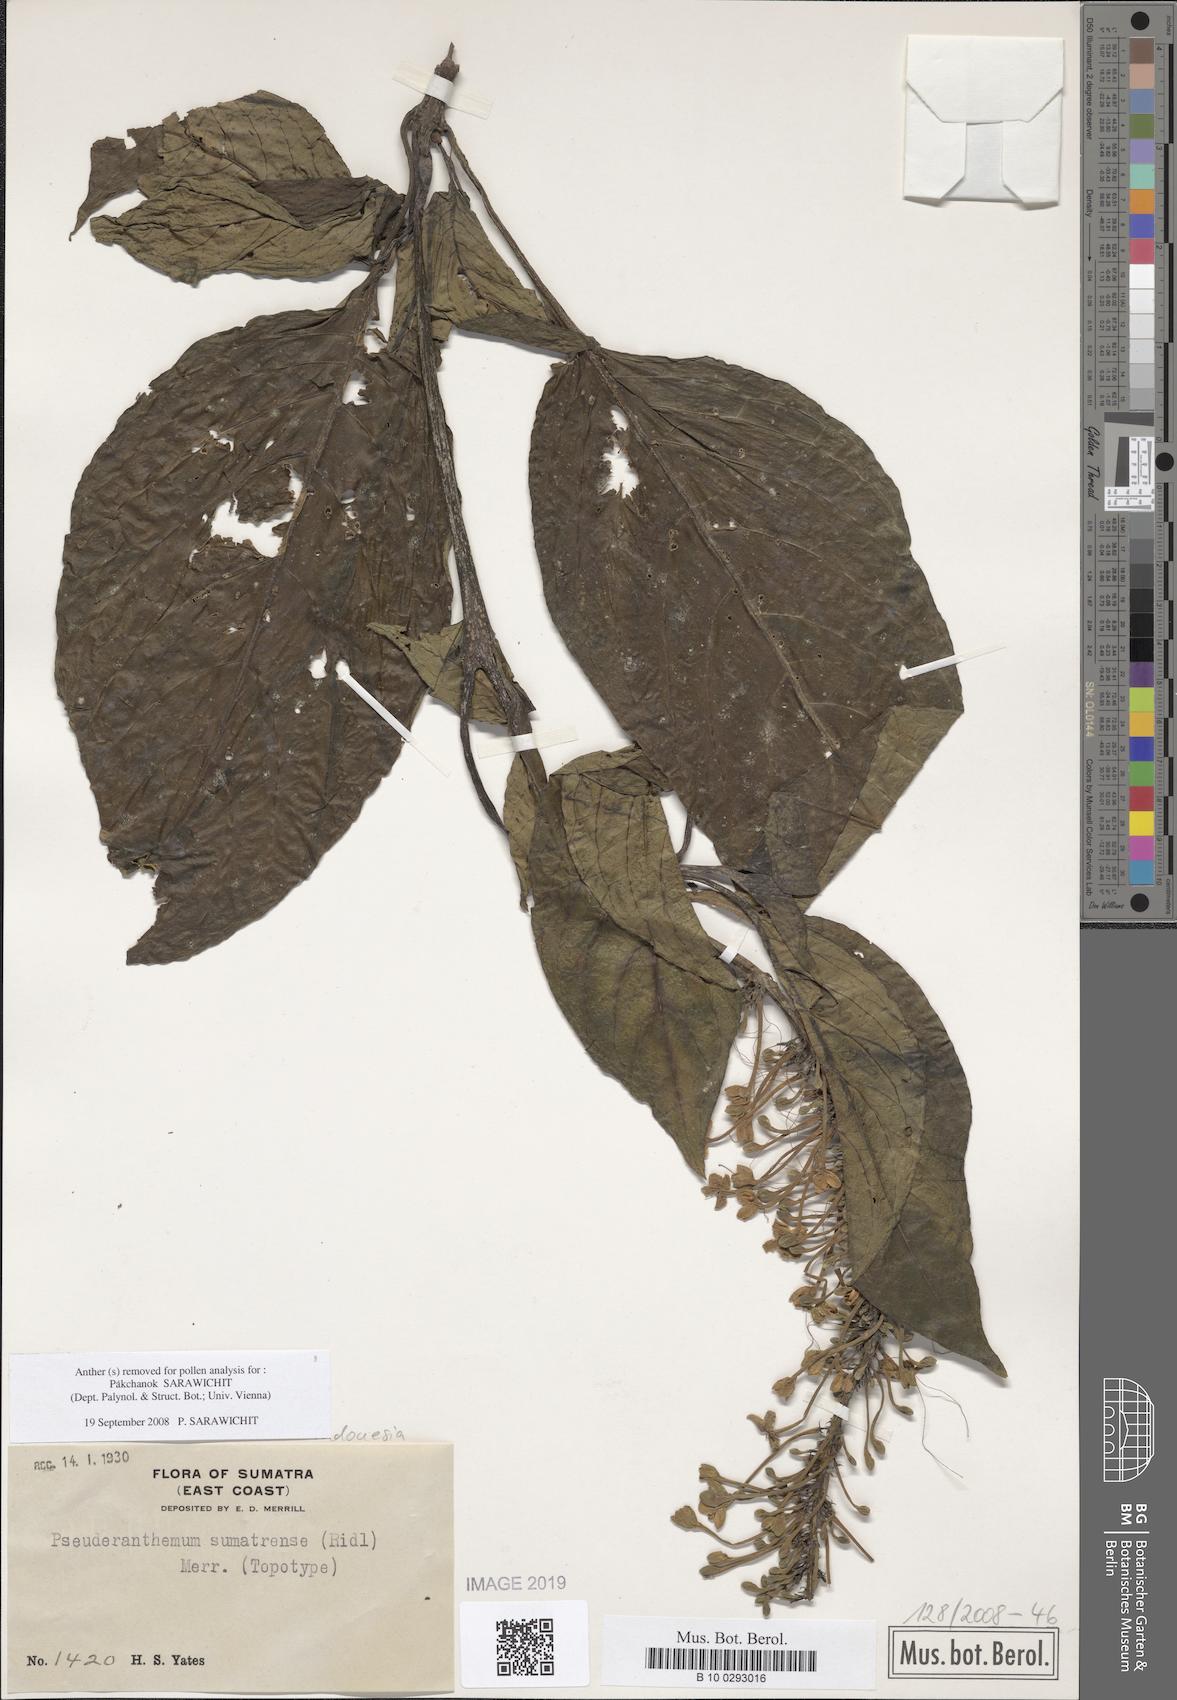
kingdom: Plantae
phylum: Tracheophyta
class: Magnoliopsida
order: Lamiales
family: Acanthaceae
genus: Pseuderanthemum
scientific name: Pseuderanthemum sumatrense
